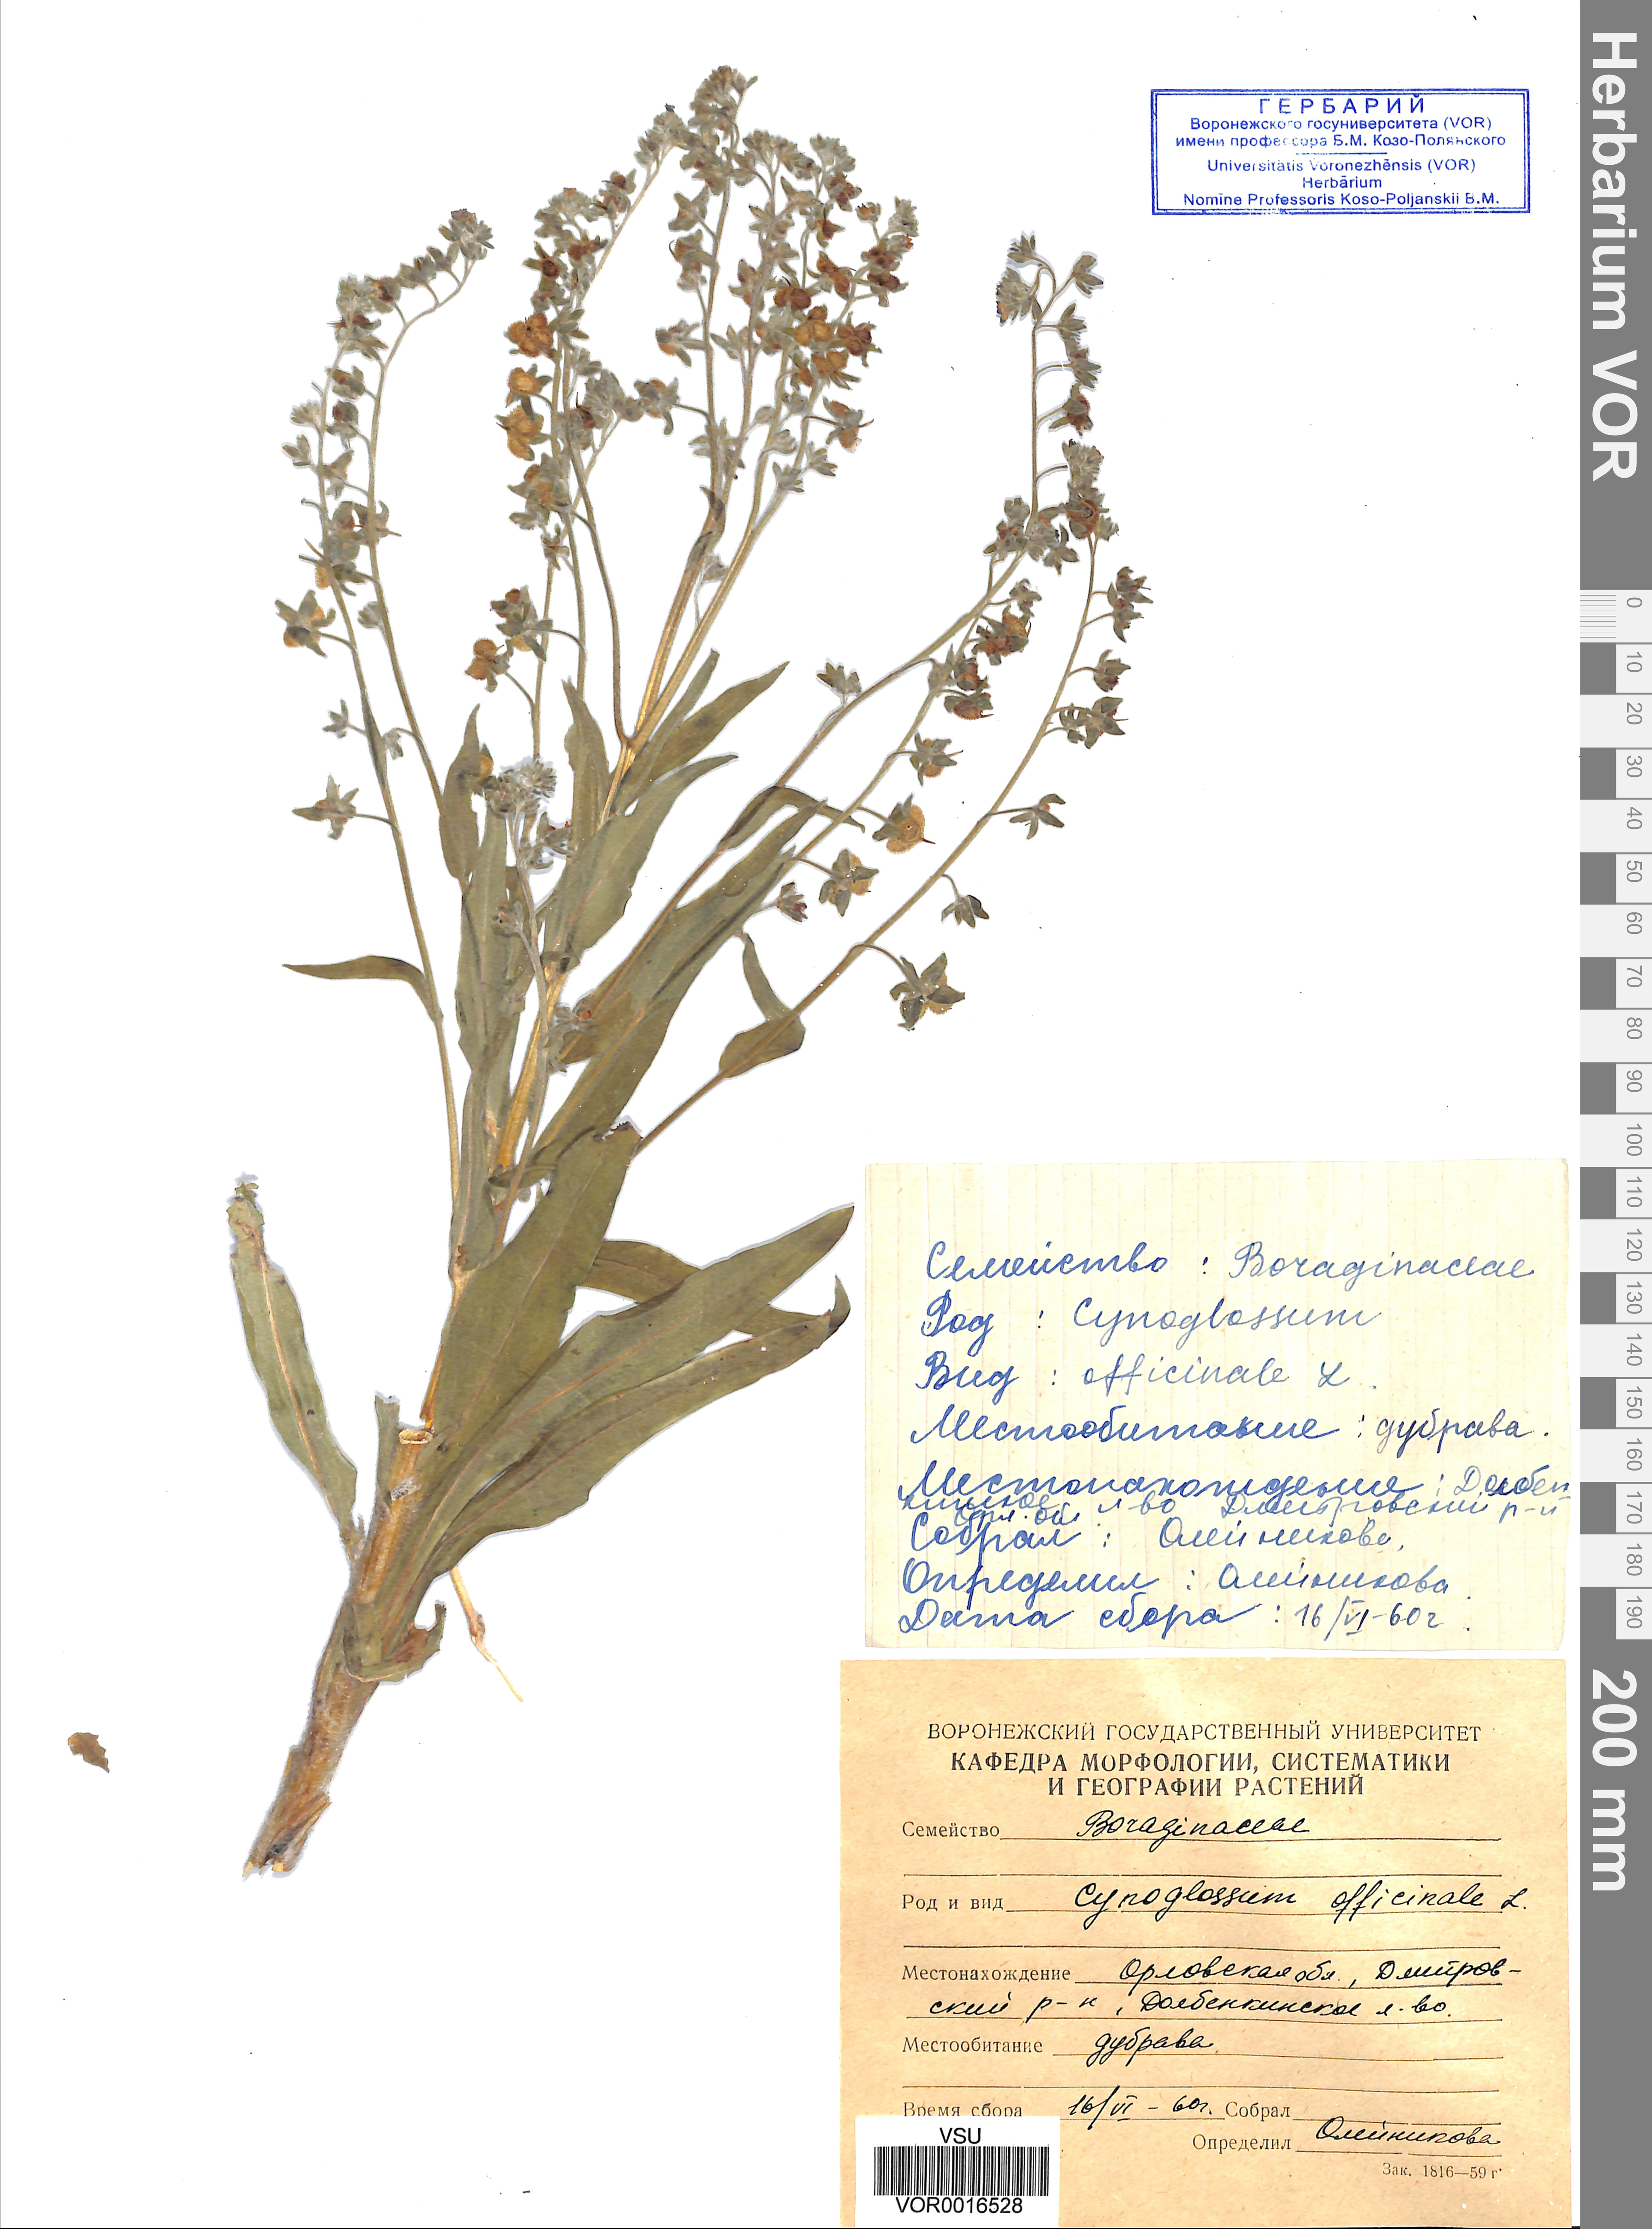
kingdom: Plantae
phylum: Tracheophyta
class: Magnoliopsida
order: Boraginales
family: Boraginaceae
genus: Cynoglossum
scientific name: Cynoglossum officinale
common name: Hound's-tongue
